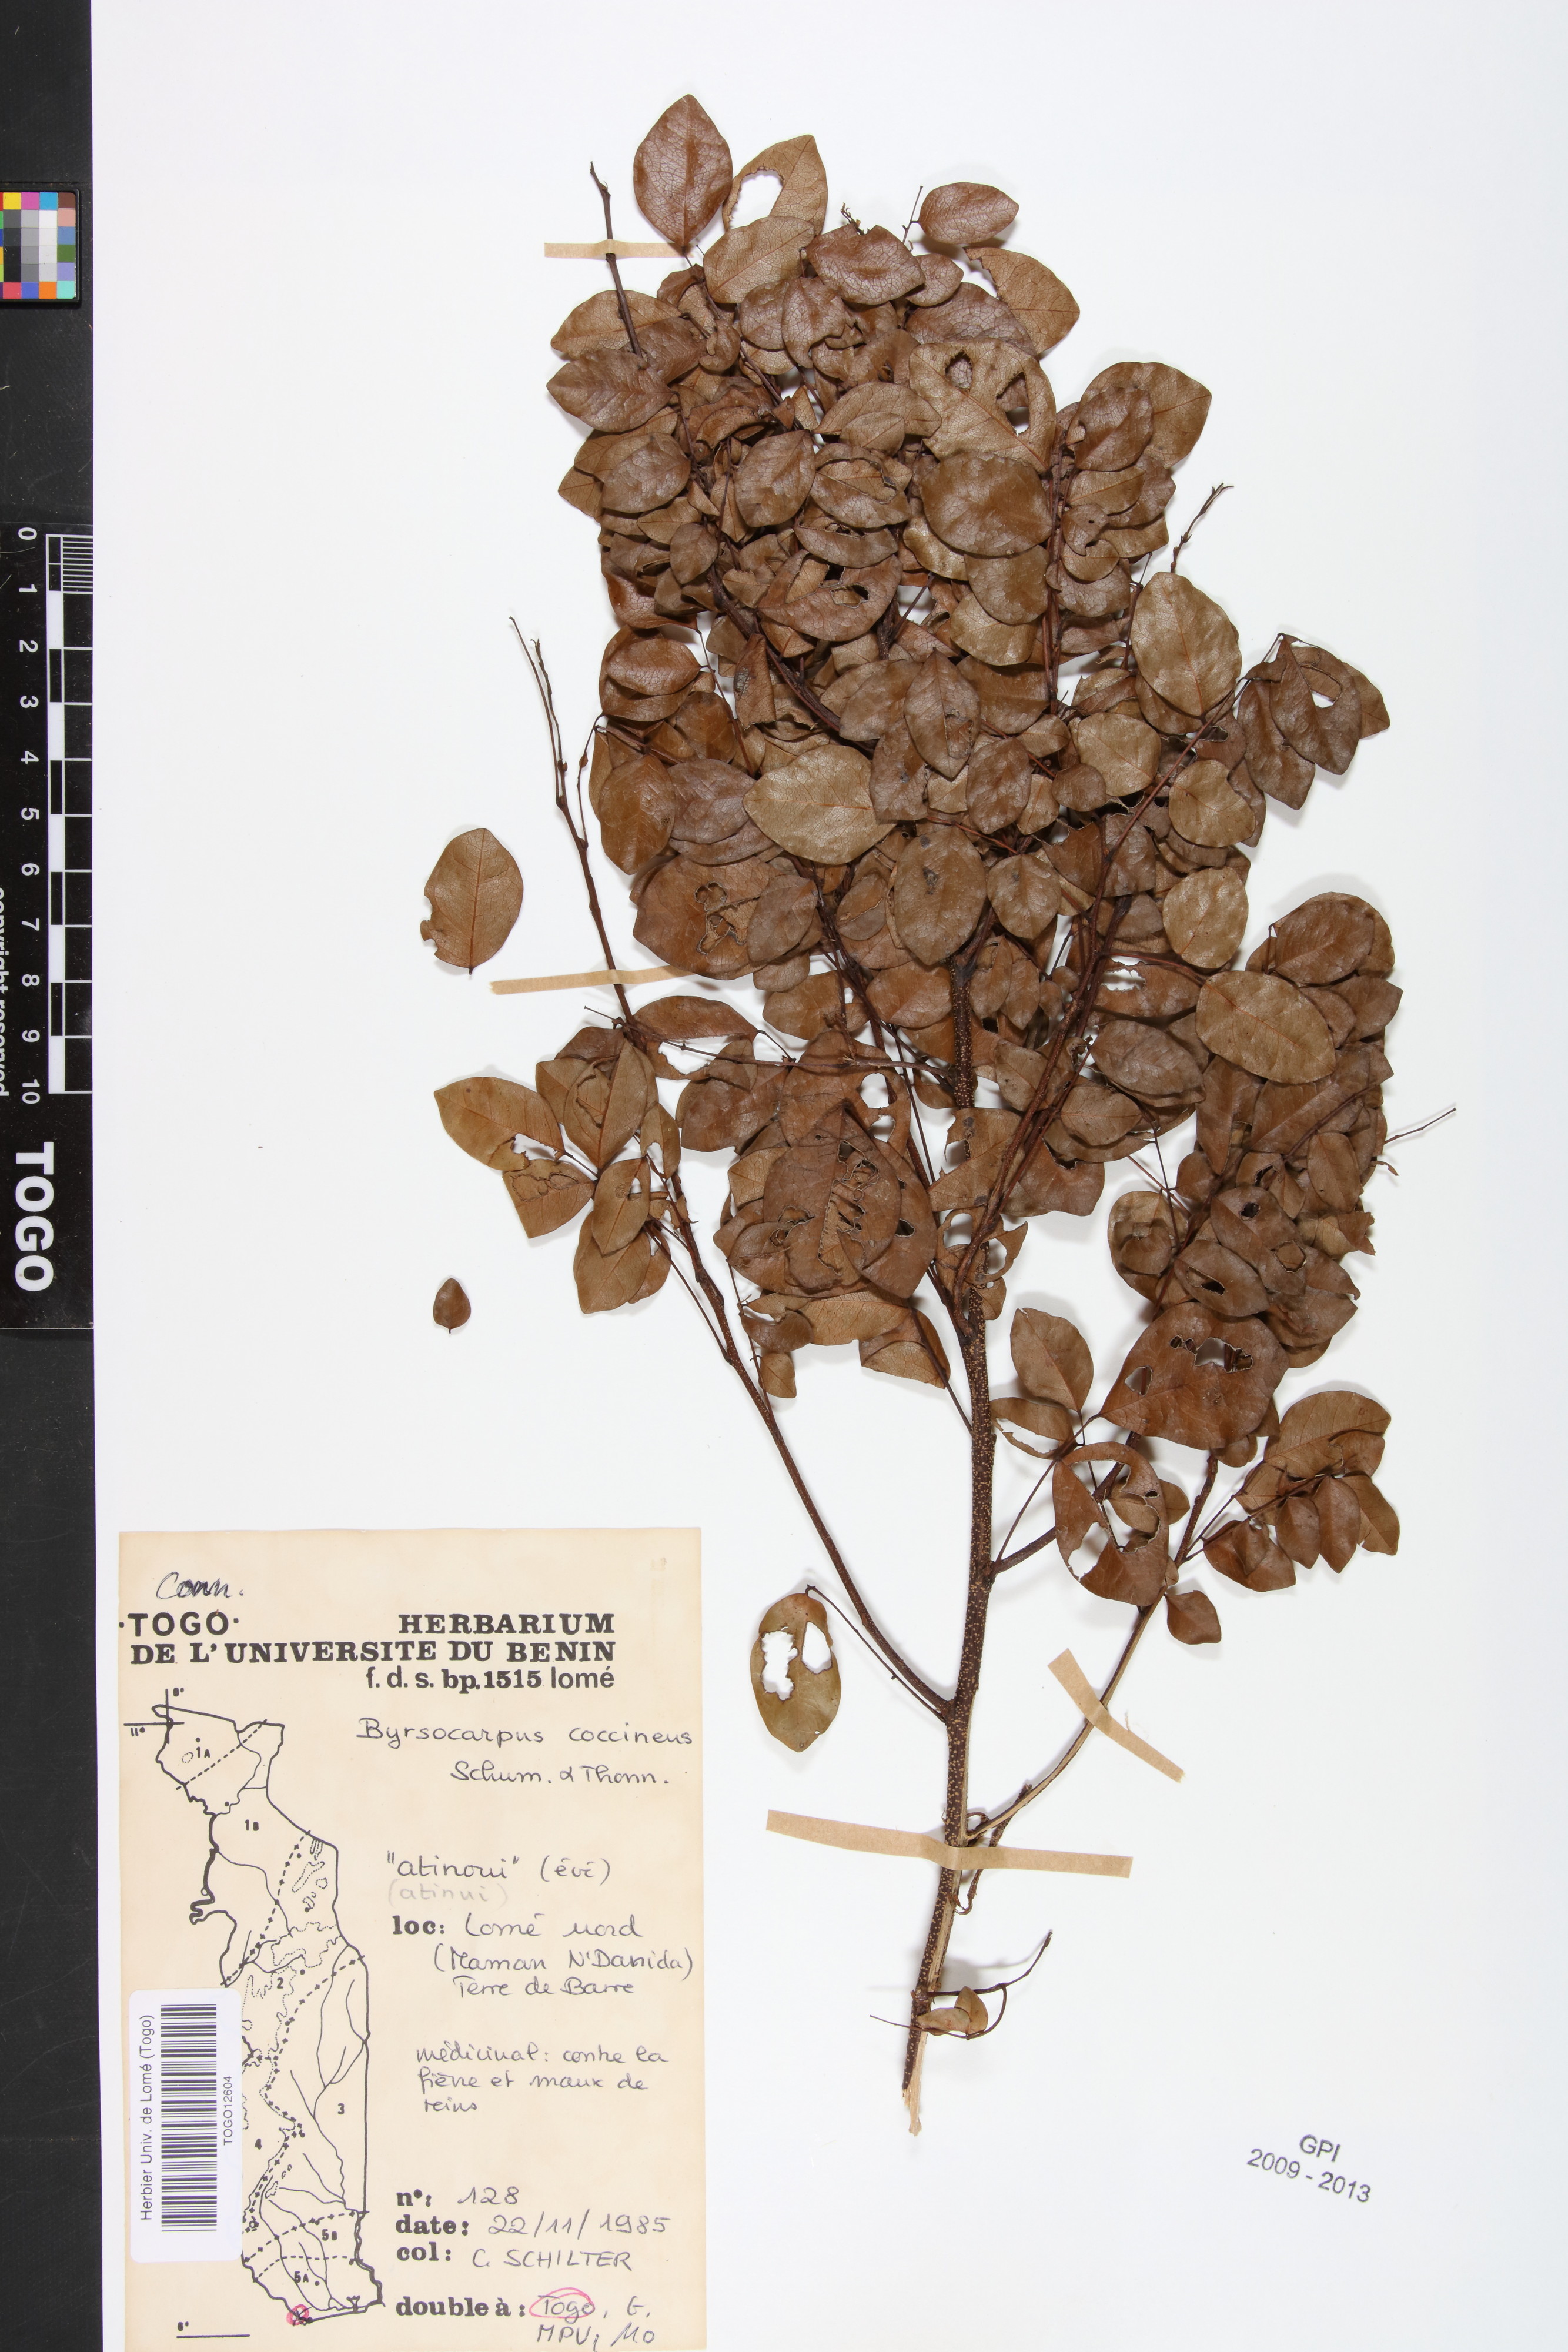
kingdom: Plantae
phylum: Tracheophyta
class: Magnoliopsida
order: Oxalidales
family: Connaraceae
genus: Rourea
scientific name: Rourea coccinea
